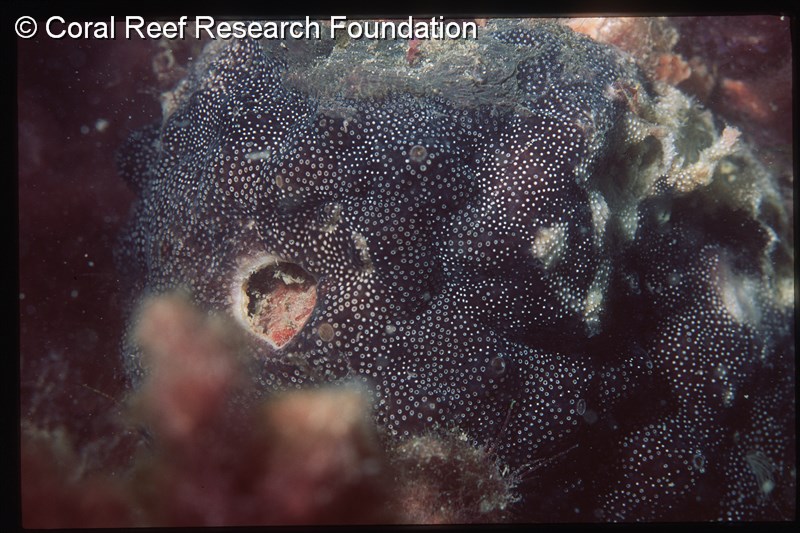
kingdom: Animalia
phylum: Chordata
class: Ascidiacea
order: Aplousobranchia
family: Didemnidae
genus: Didemnum
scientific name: Didemnum
